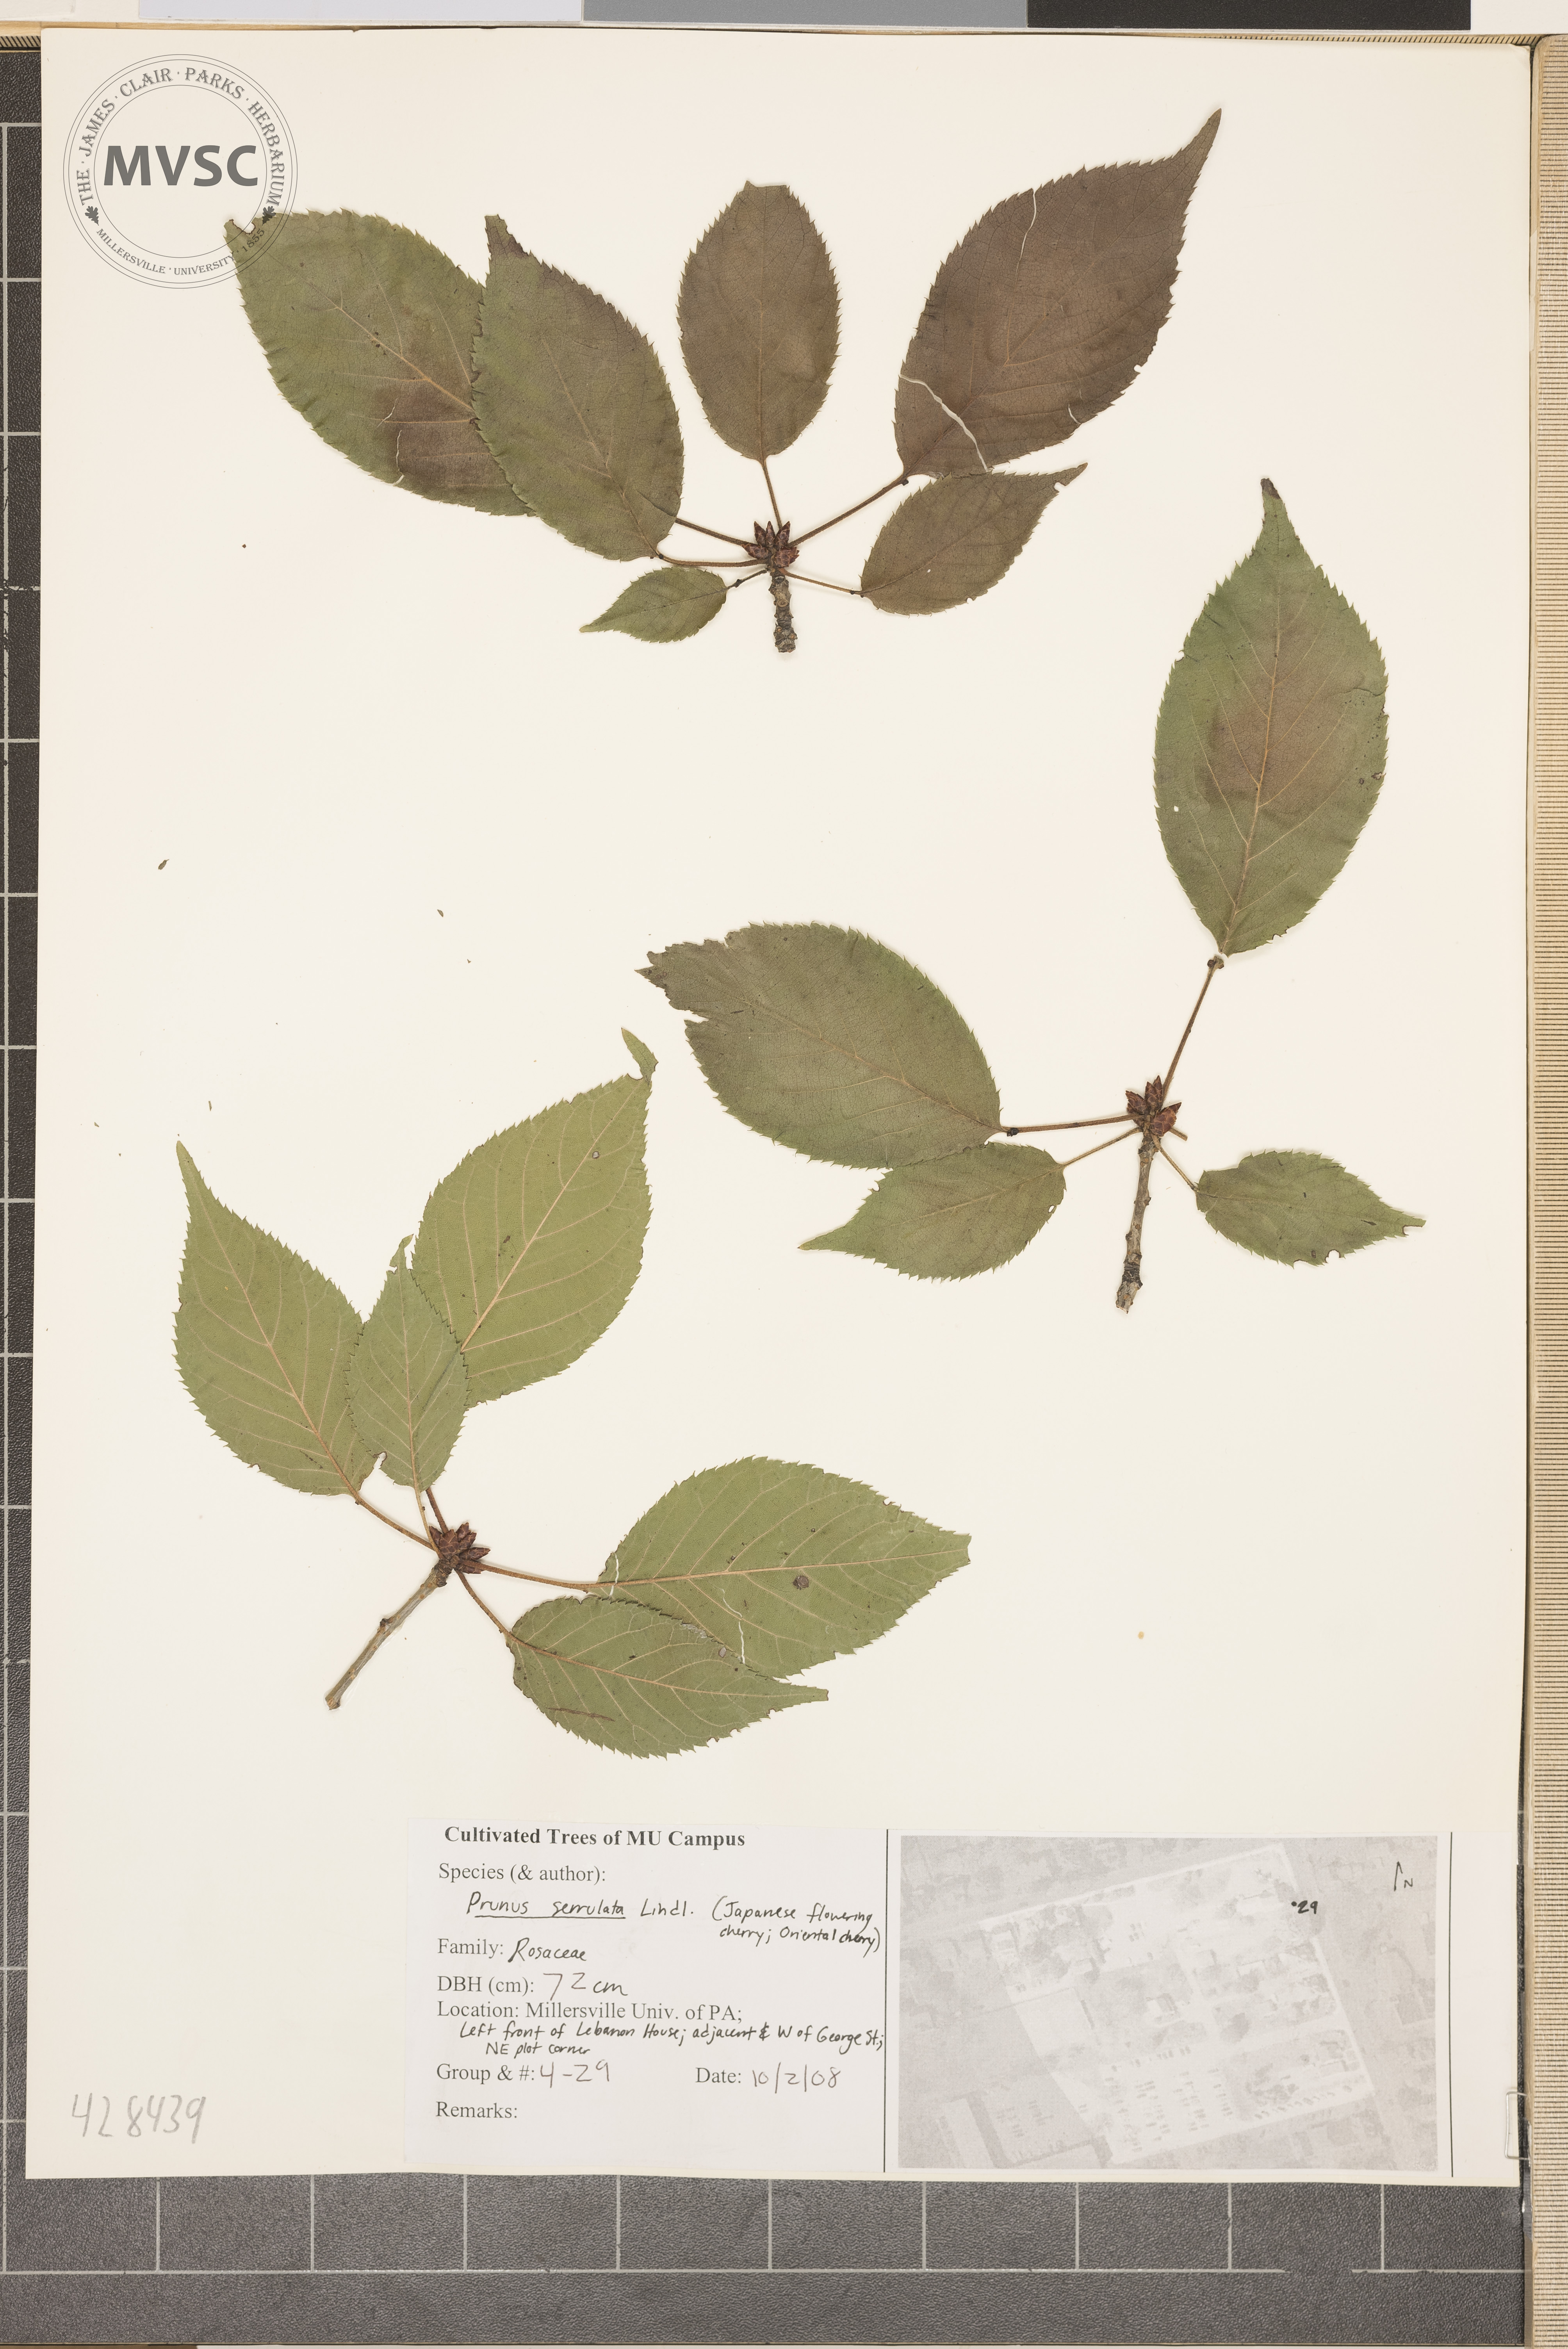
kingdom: Plantae
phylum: Tracheophyta
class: Magnoliopsida
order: Rosales
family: Rosaceae
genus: Prunus
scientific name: Prunus serrulata
